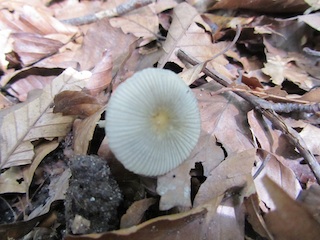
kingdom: Fungi
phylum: Basidiomycota
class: Agaricomycetes
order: Agaricales
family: Psathyrellaceae
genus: Parasola
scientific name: Parasola lactea
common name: glat hjulhat
